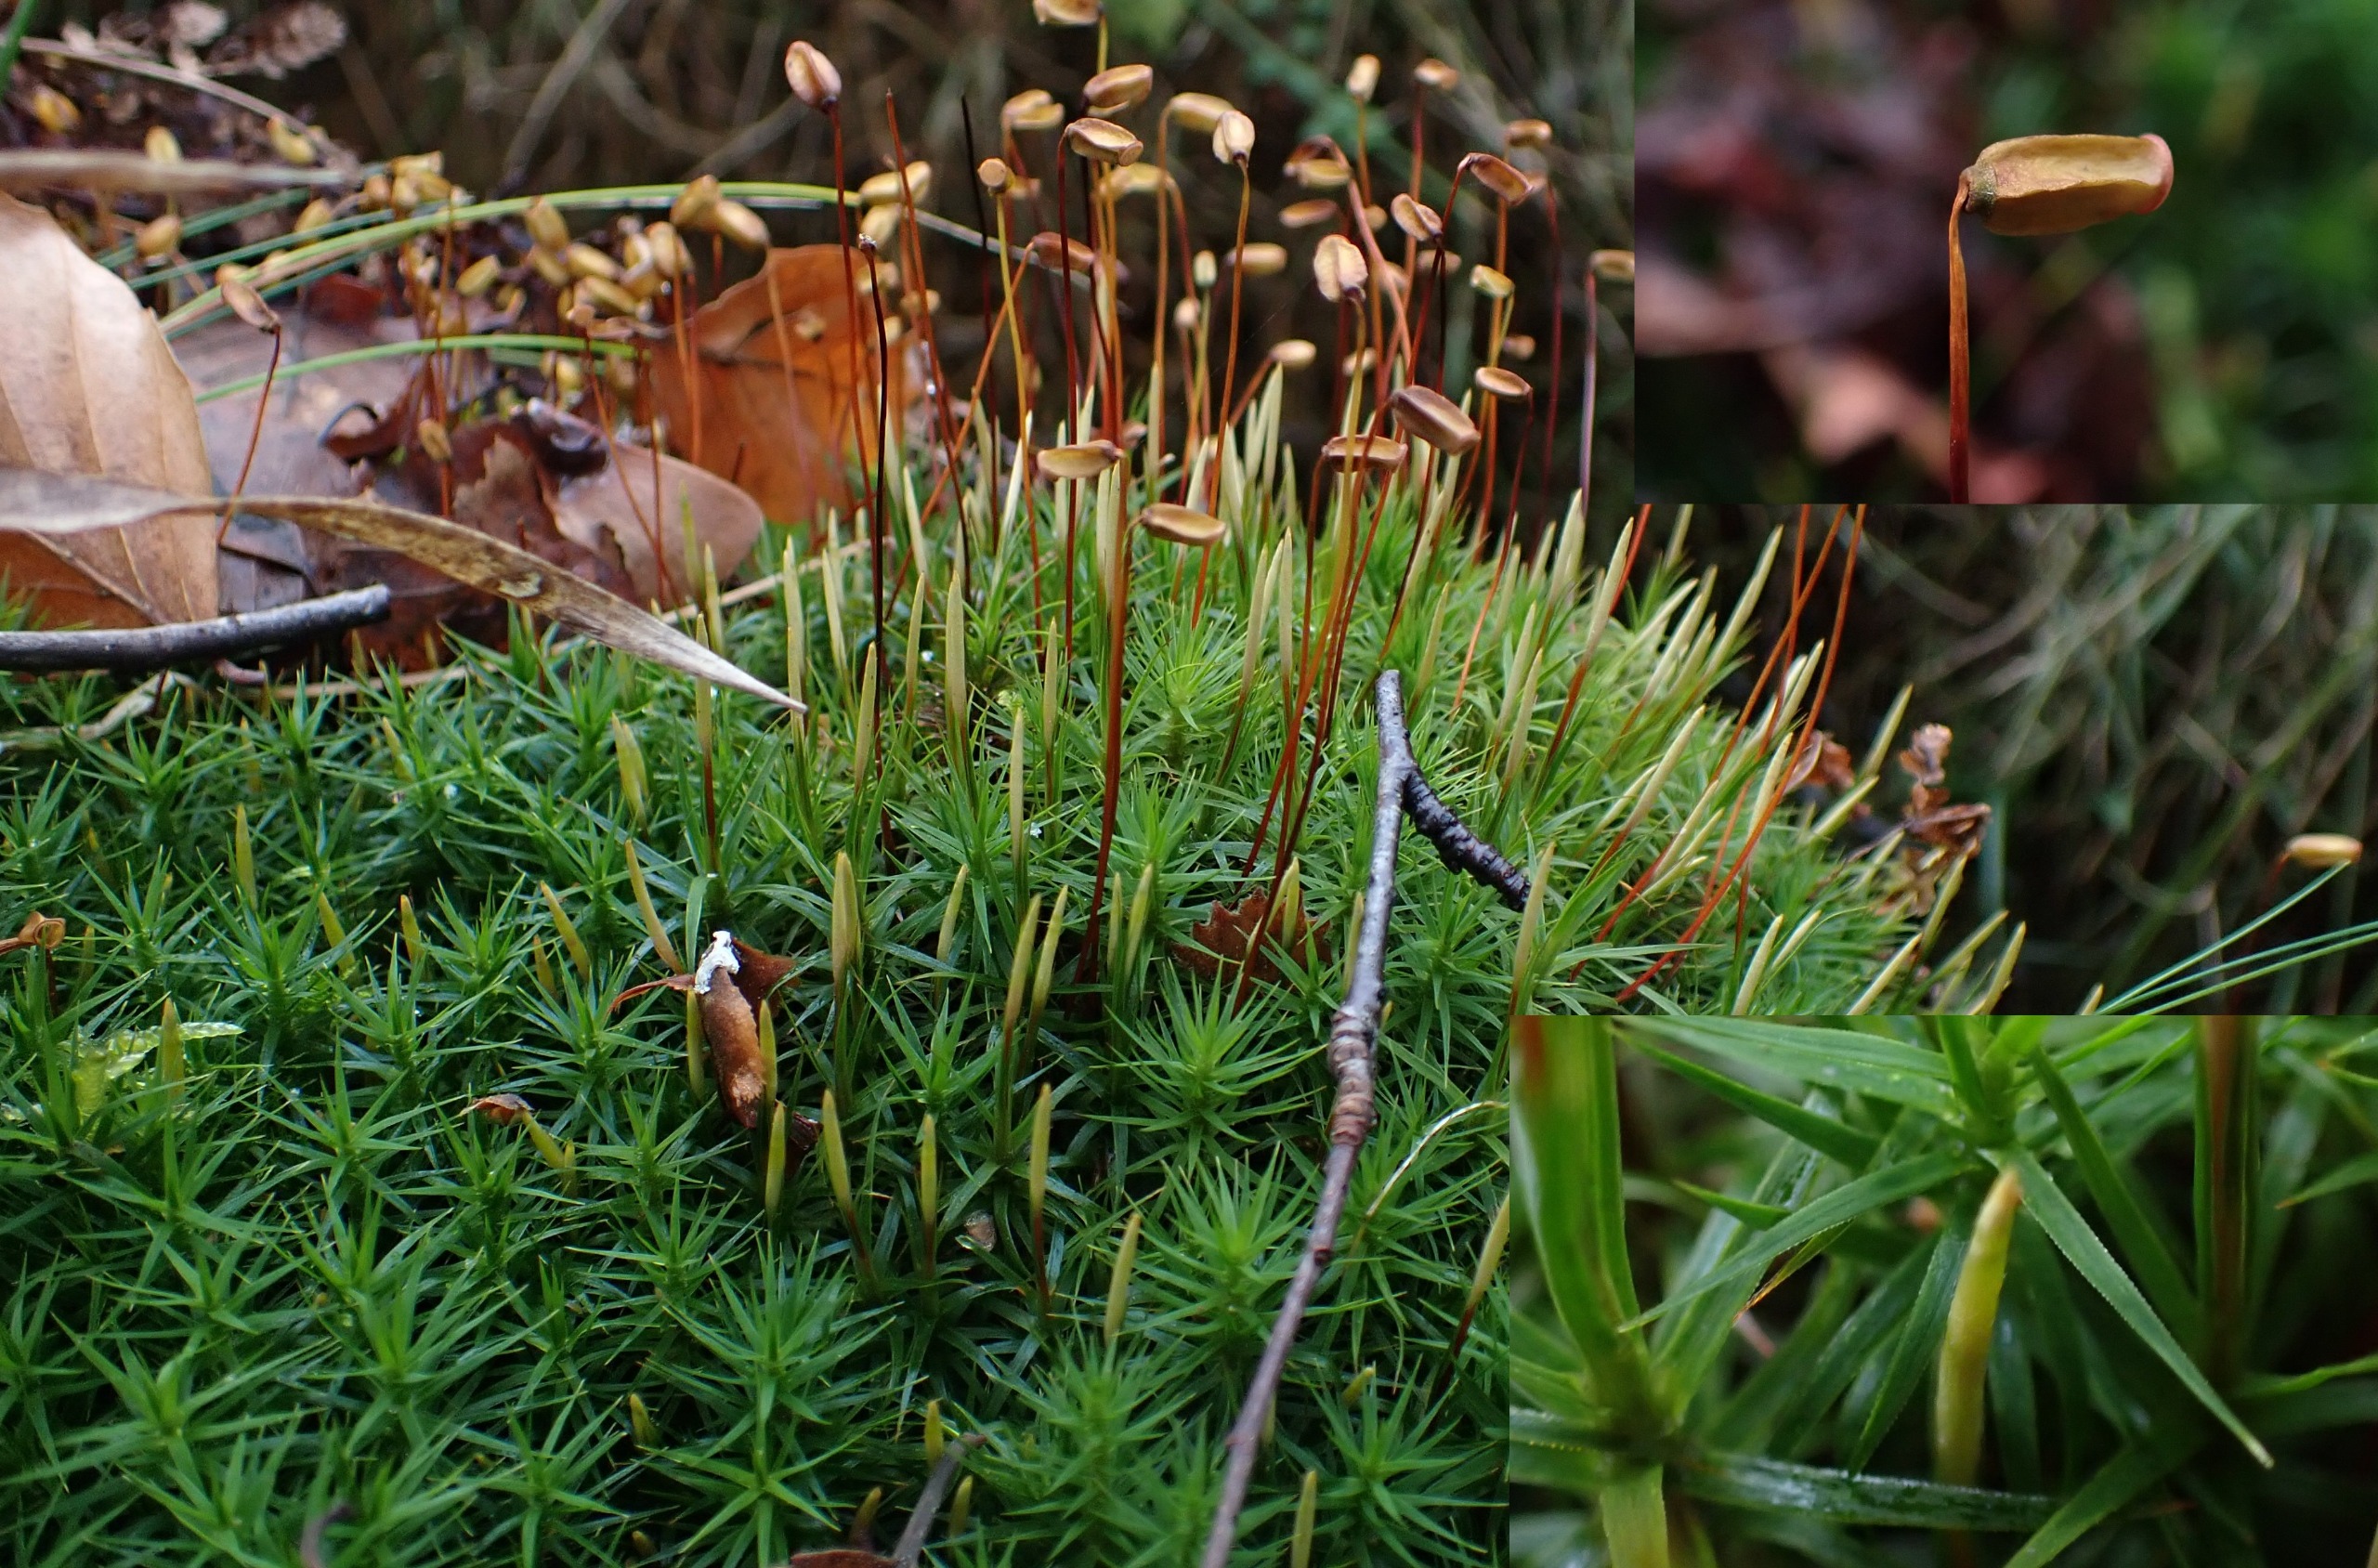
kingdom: Plantae
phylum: Bryophyta
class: Polytrichopsida
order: Polytrichales
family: Polytrichaceae
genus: Polytrichum
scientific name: Polytrichum formosum
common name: Skov-jomfruhår
